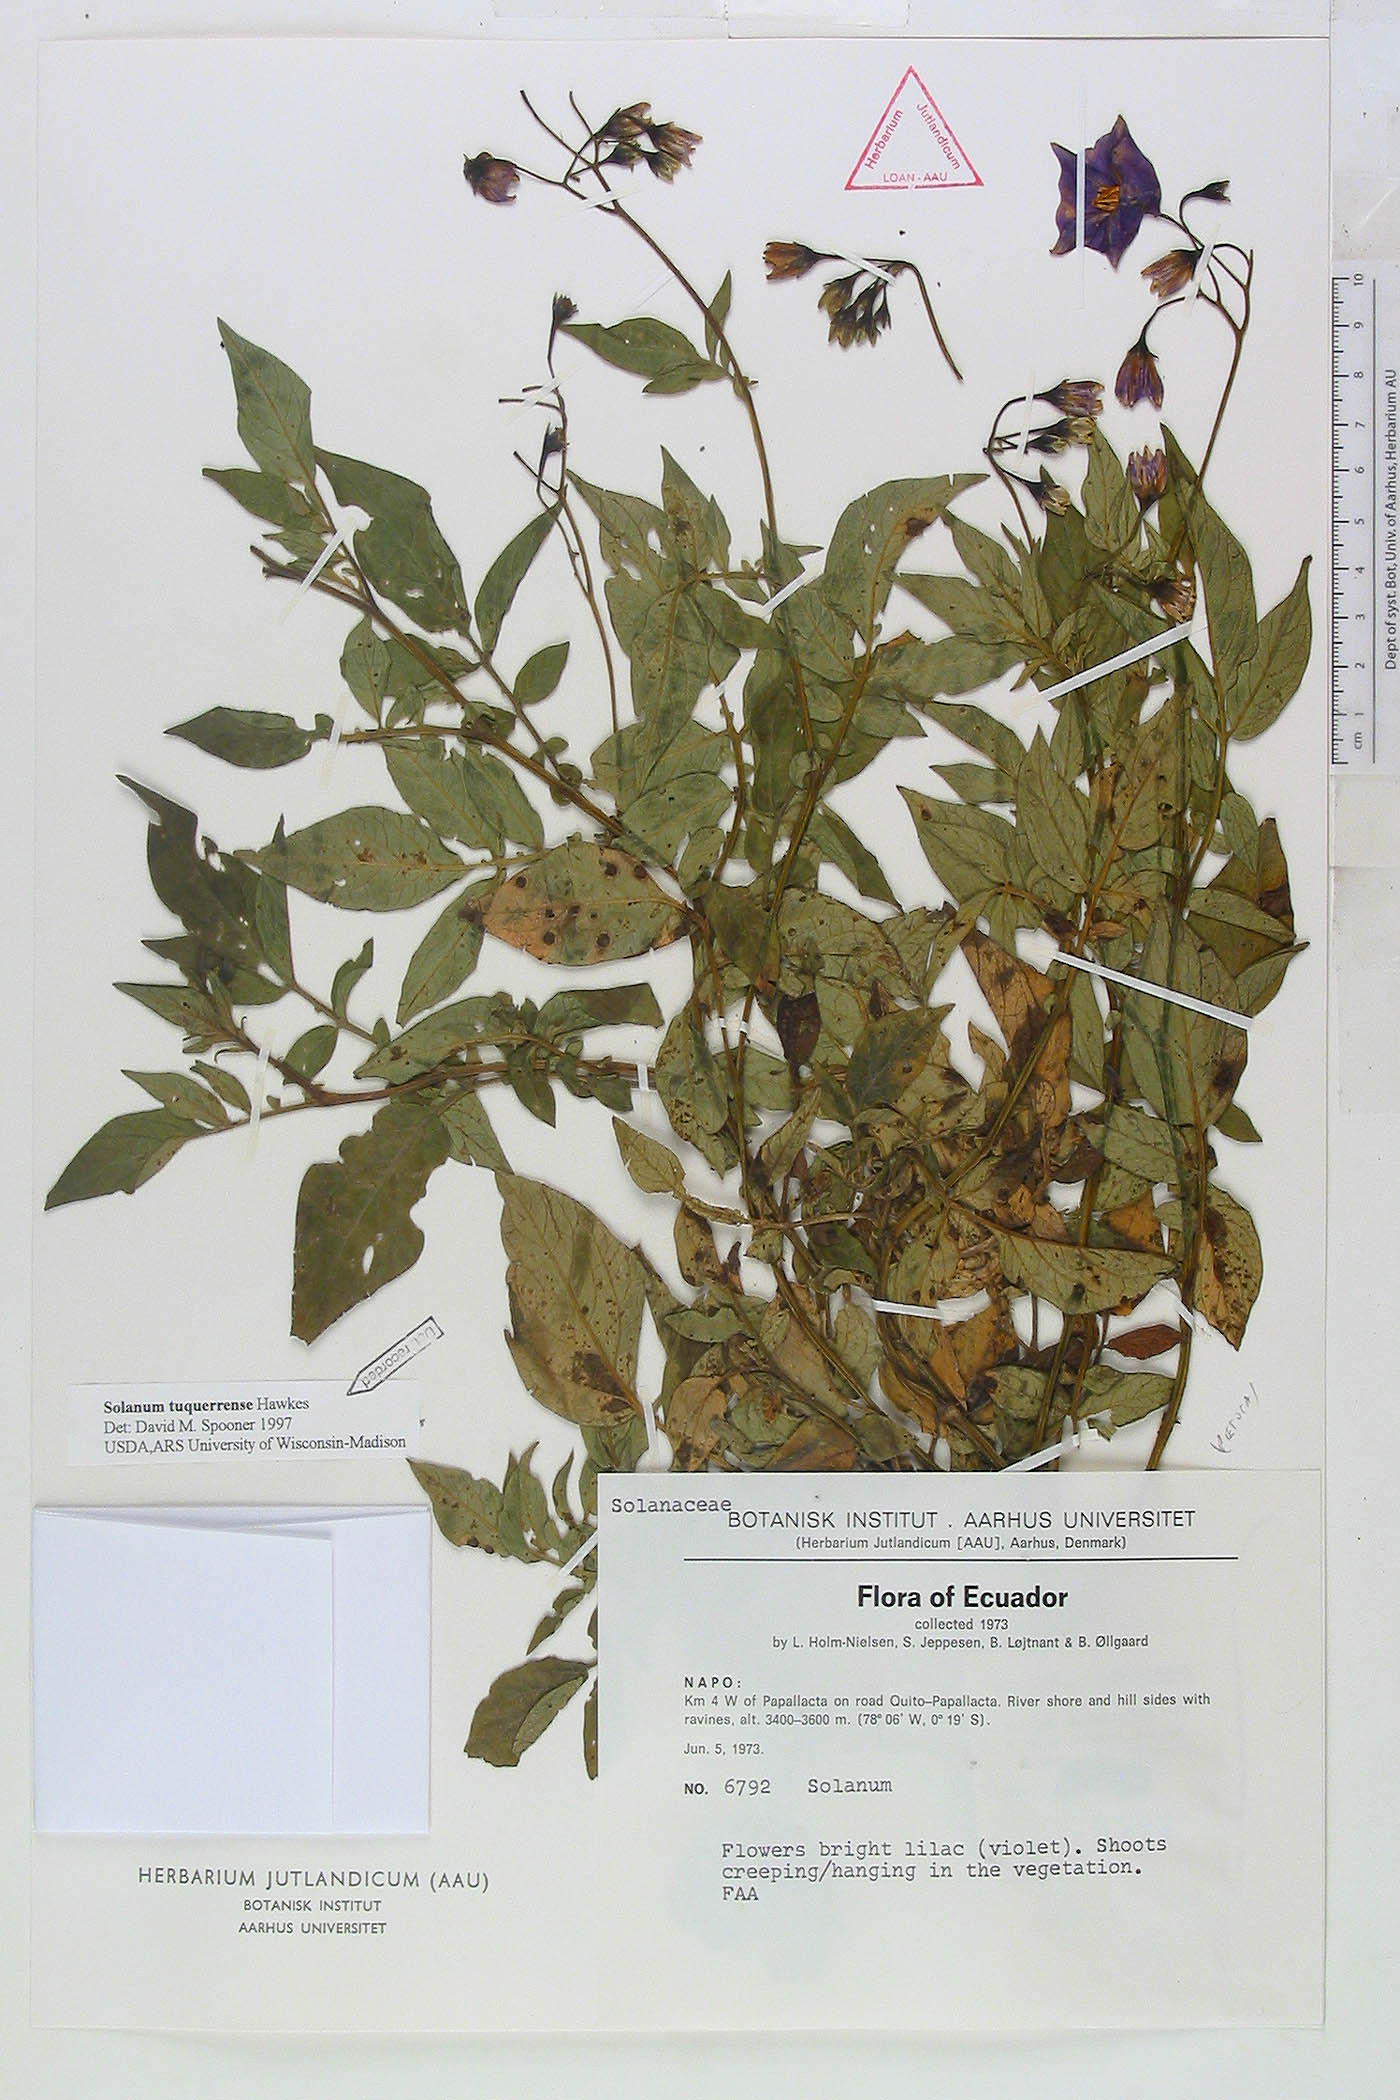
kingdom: Plantae
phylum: Tracheophyta
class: Magnoliopsida
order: Solanales
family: Solanaceae
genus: Solanum
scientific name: Solanum andreanum
